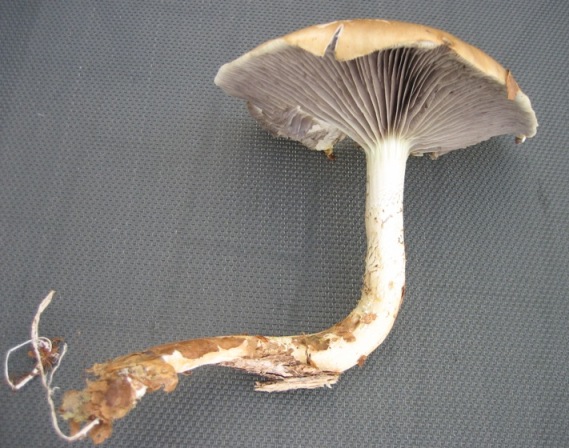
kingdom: Fungi
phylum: Basidiomycota
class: Agaricomycetes
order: Agaricales
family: Strophariaceae
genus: Stropharia
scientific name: Stropharia hornemannii
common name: nordisk bredblad
